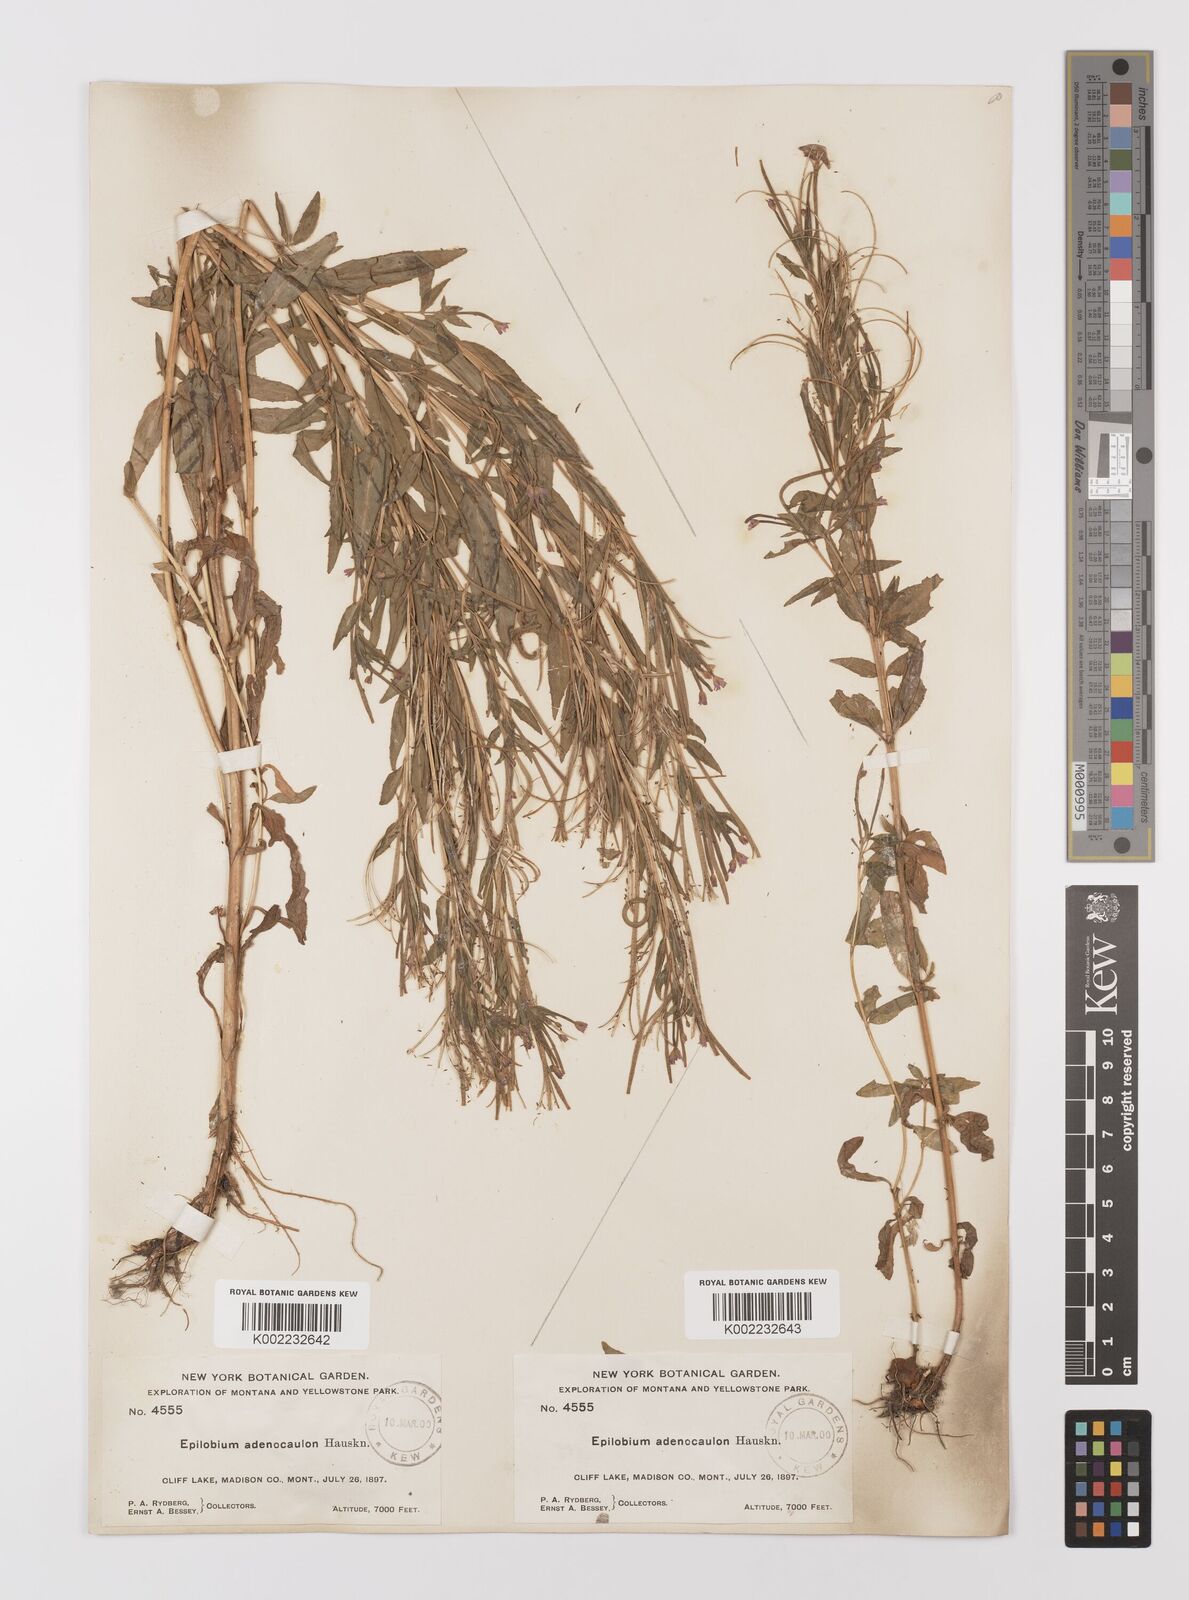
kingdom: Plantae
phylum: Tracheophyta
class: Magnoliopsida
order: Myrtales
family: Onagraceae
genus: Epilobium
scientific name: Epilobium ciliatum
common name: American willowherb
